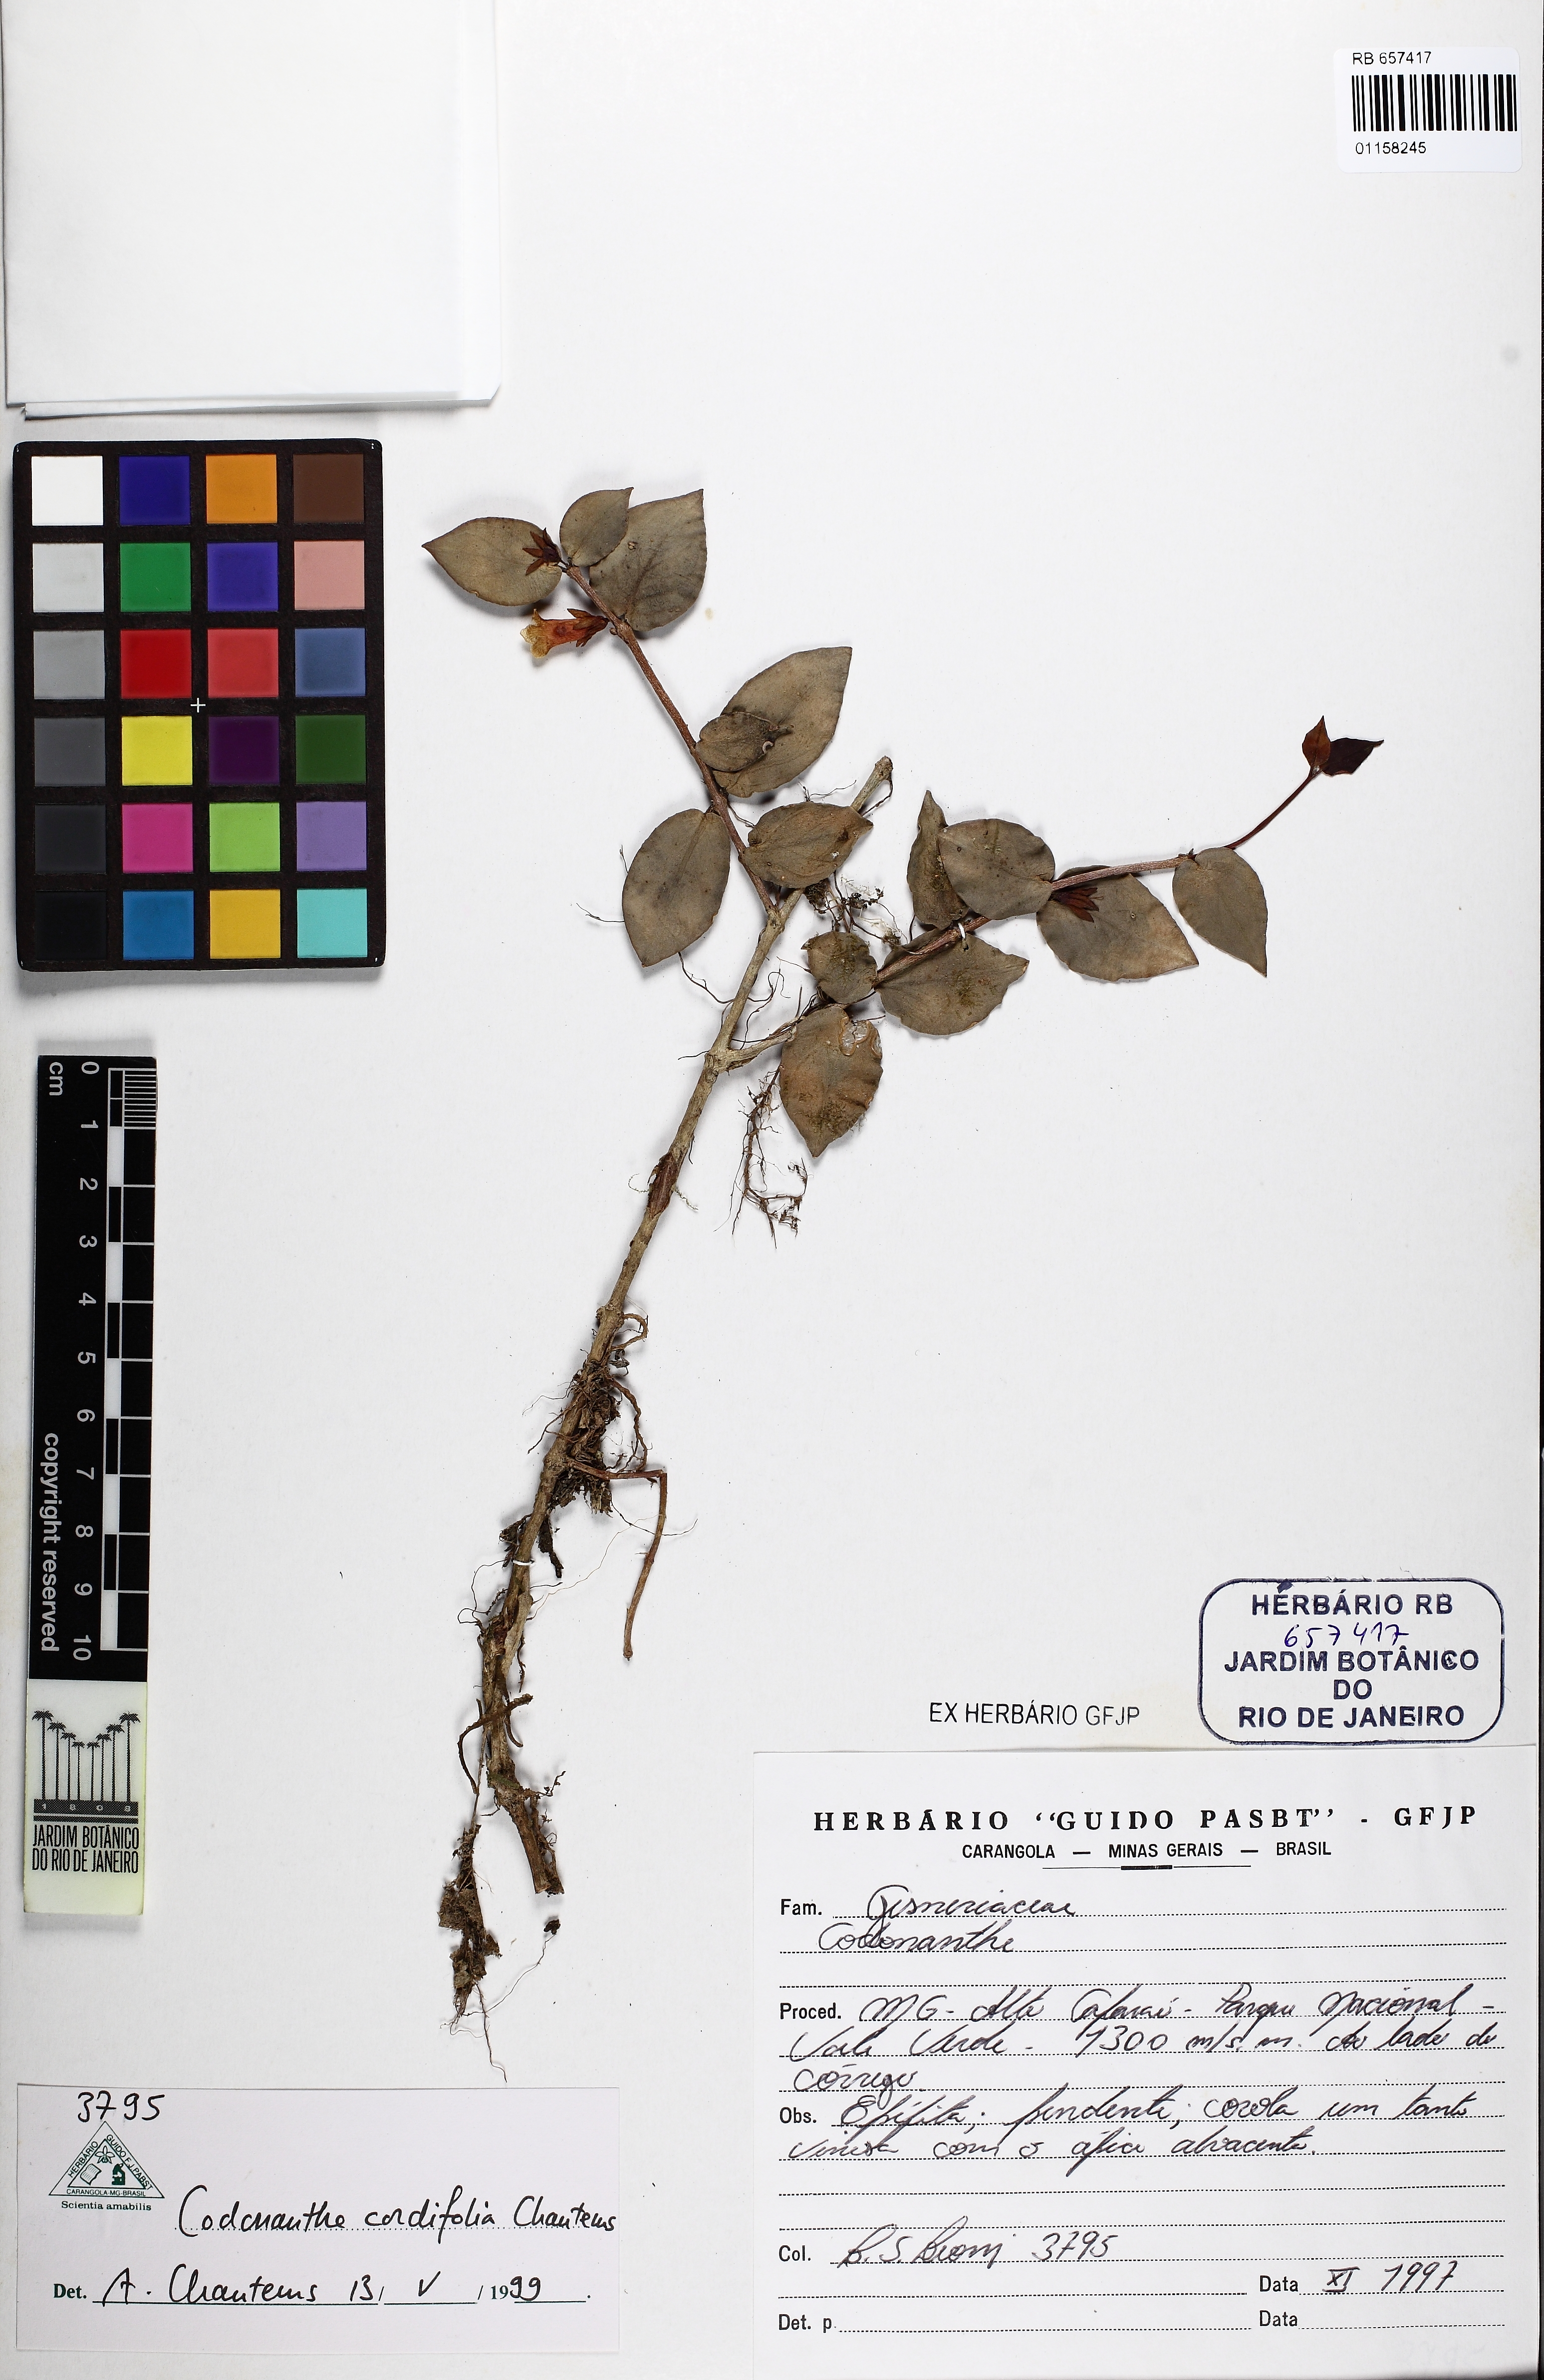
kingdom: Plantae
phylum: Tracheophyta
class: Magnoliopsida
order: Lamiales
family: Gesneriaceae
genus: Codonanthe
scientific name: Codonanthe cordifolia
